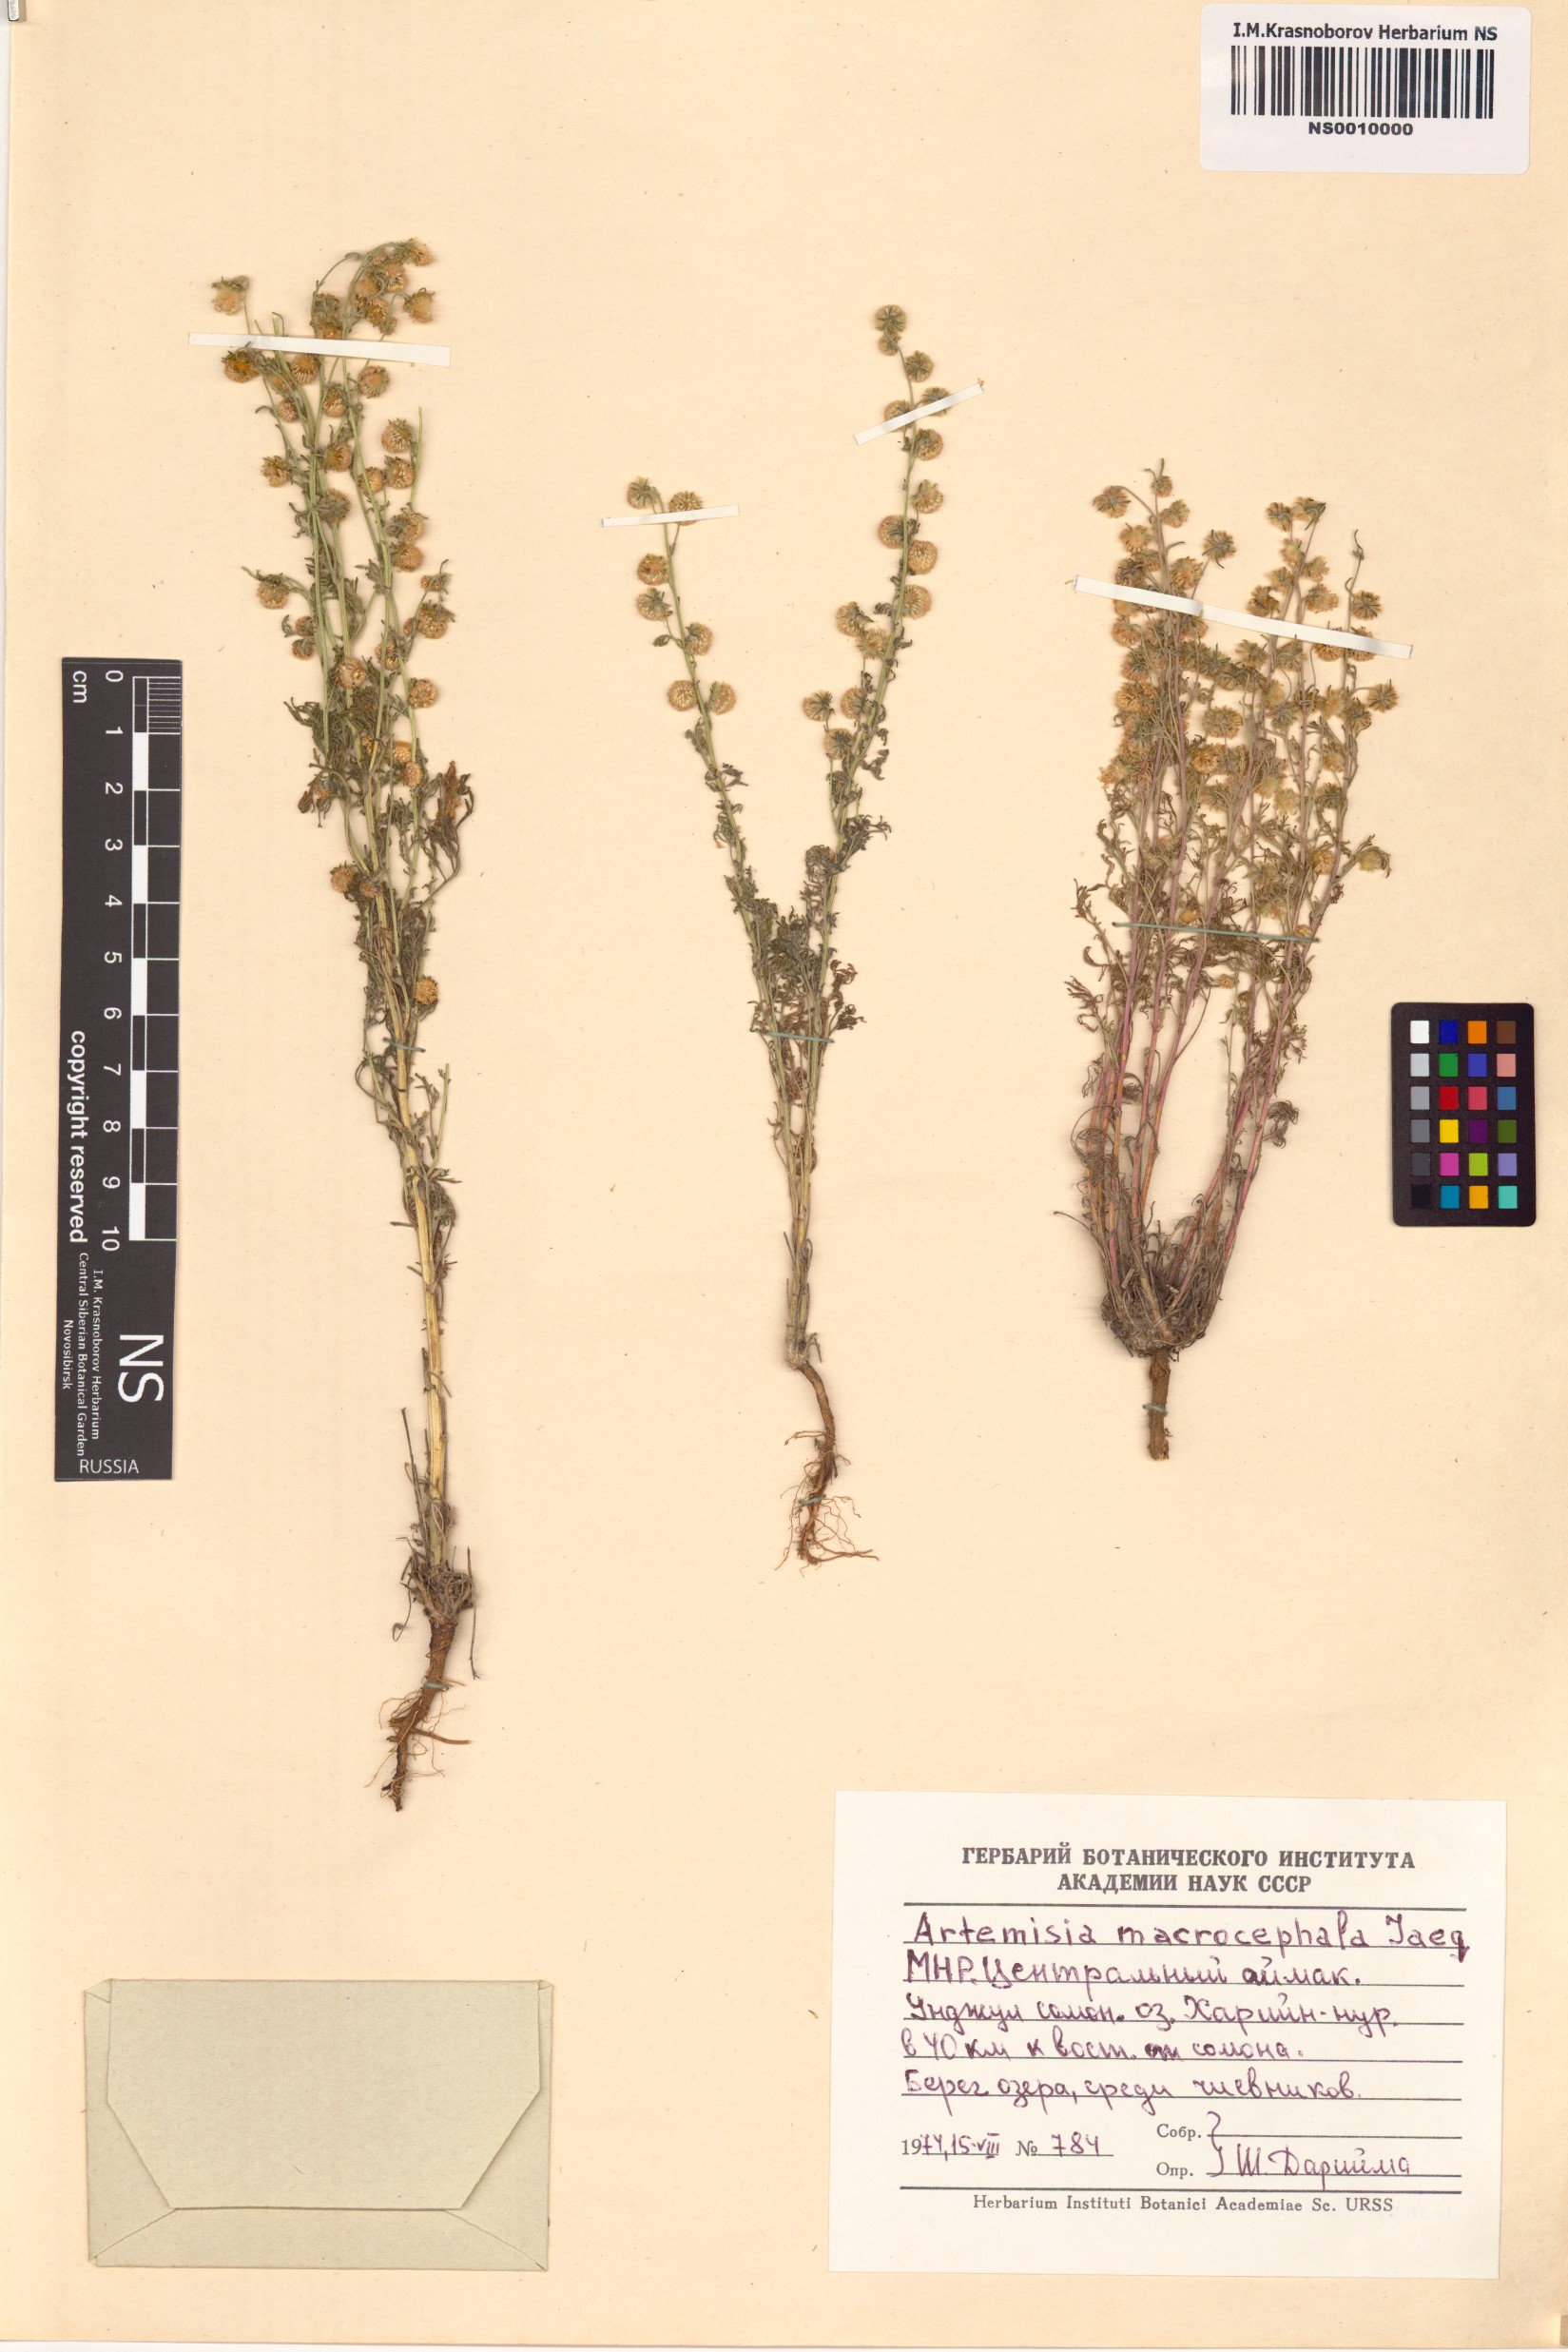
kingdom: Plantae
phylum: Tracheophyta
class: Magnoliopsida
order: Asterales
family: Asteraceae
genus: Artemisia
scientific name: Artemisia macrocephala
